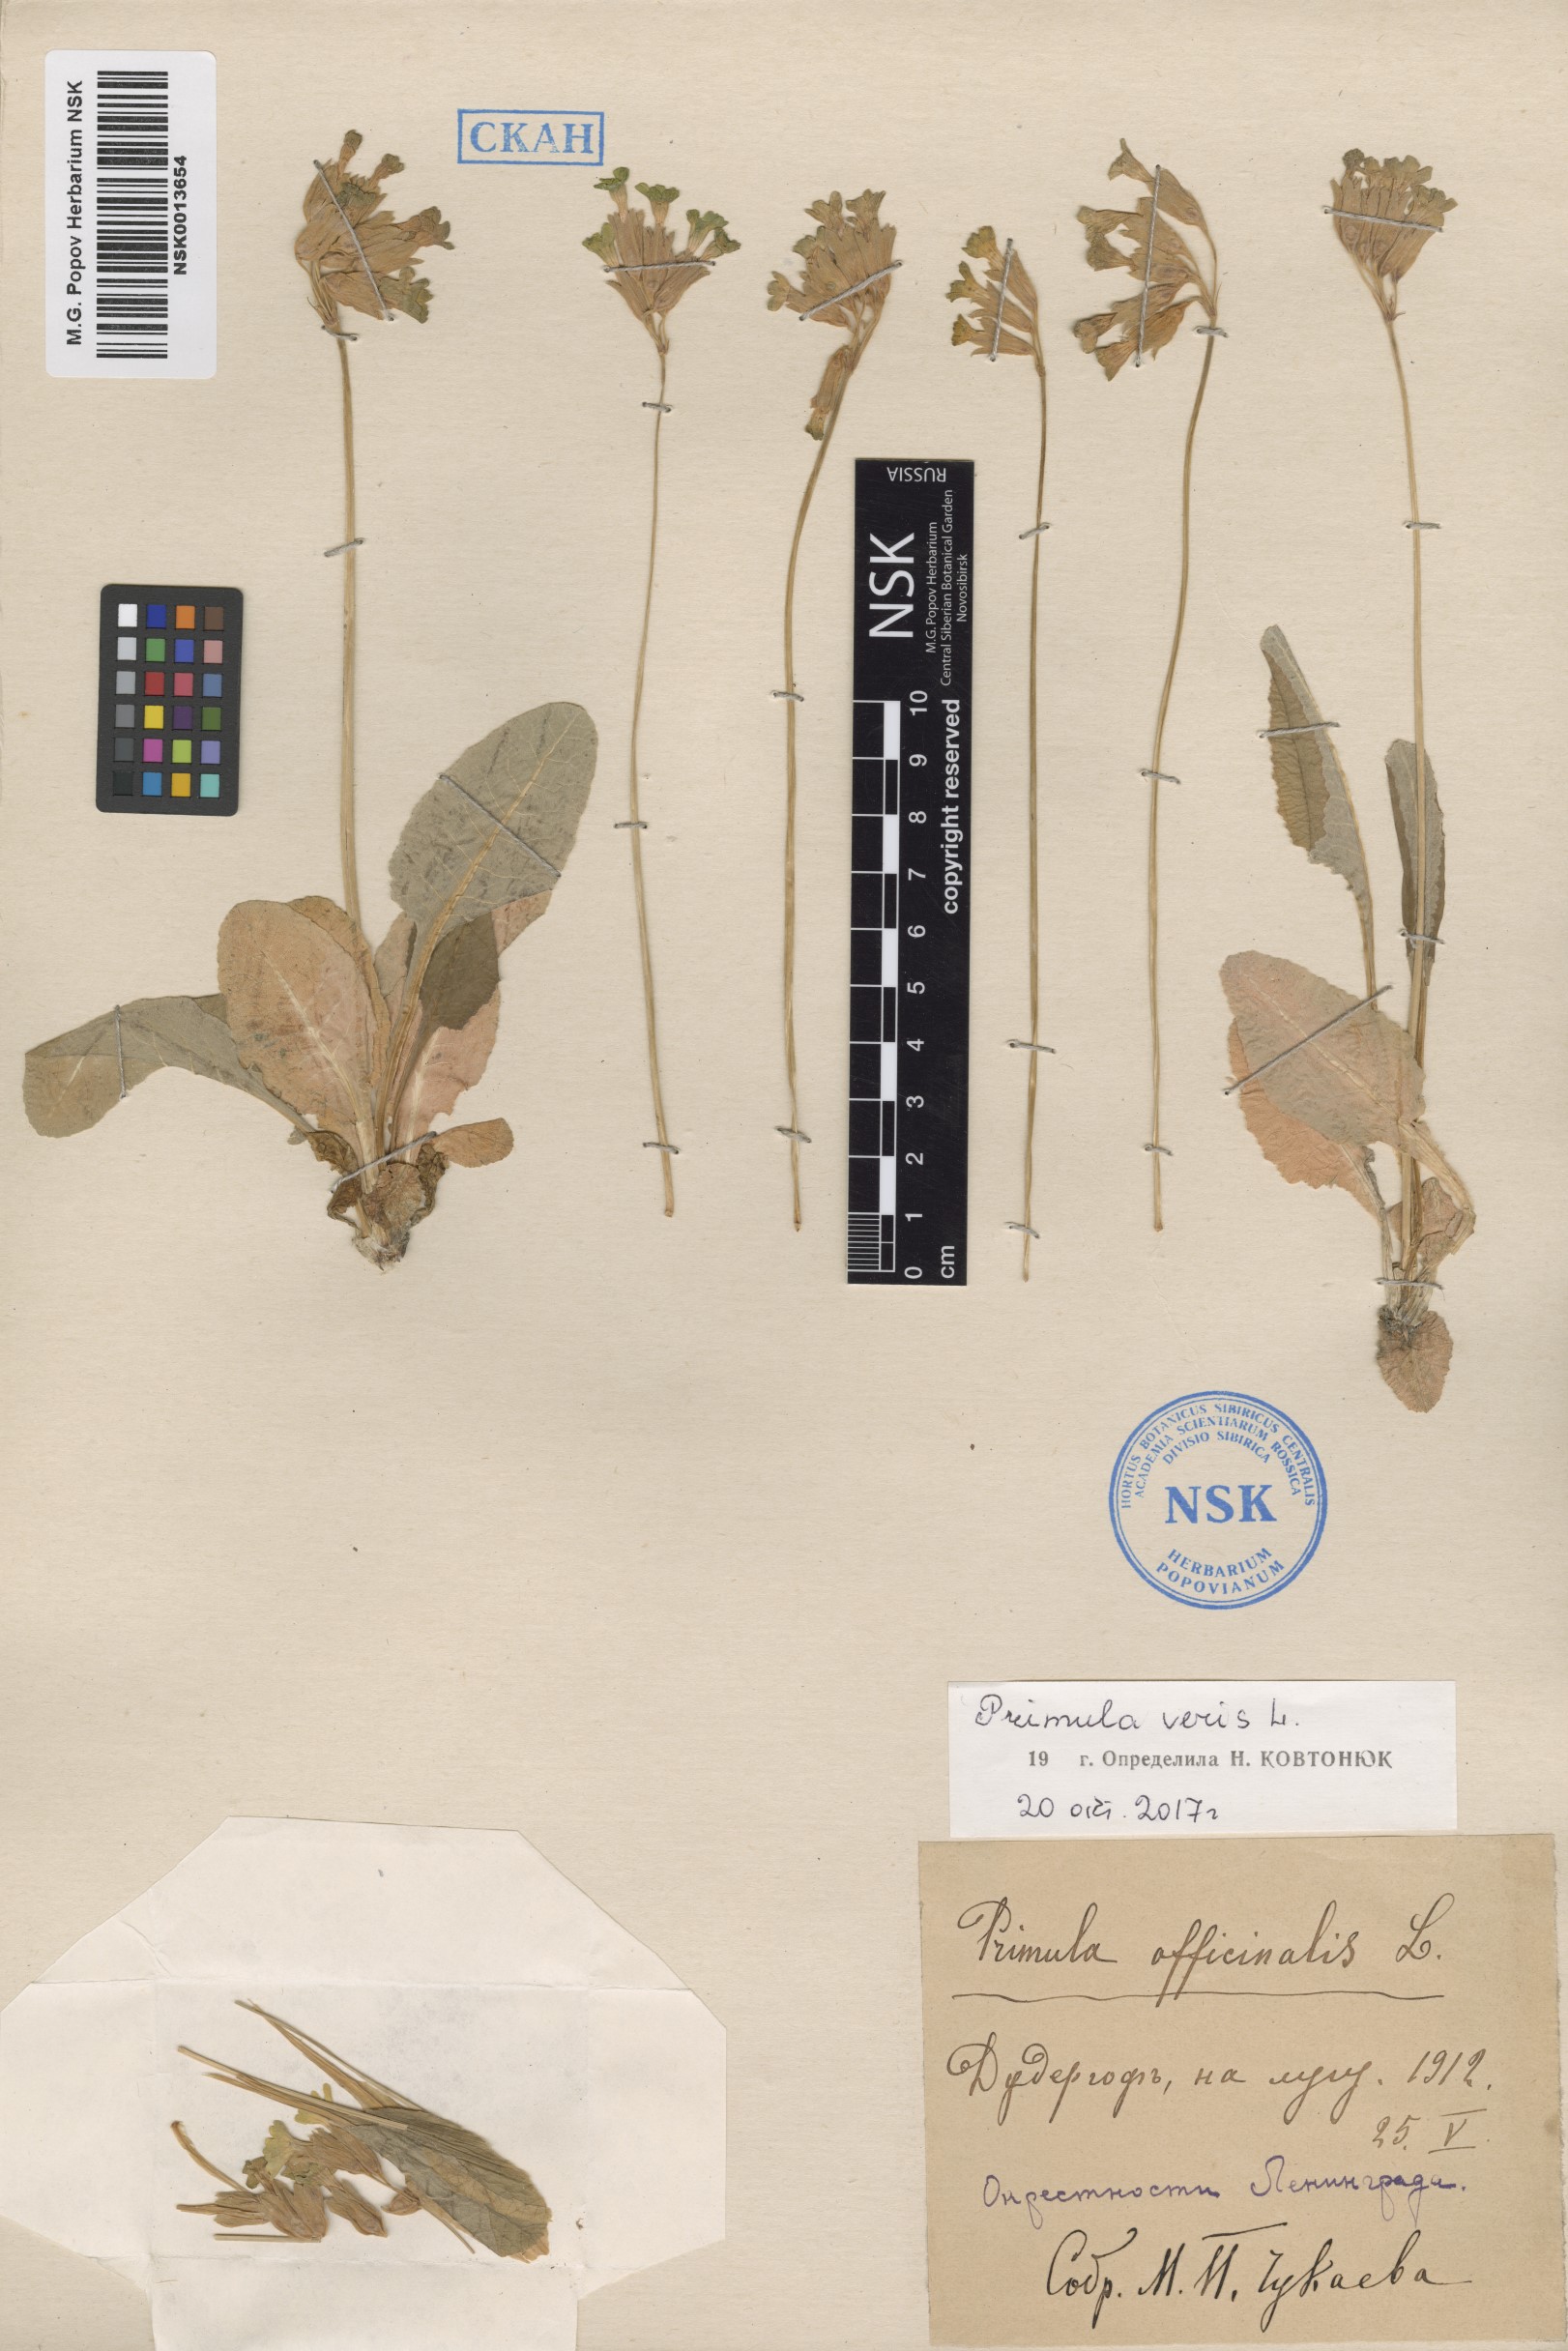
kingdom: Plantae
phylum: Tracheophyta
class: Magnoliopsida
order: Ericales
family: Primulaceae
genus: Primula
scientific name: Primula veris
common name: Cowslip
